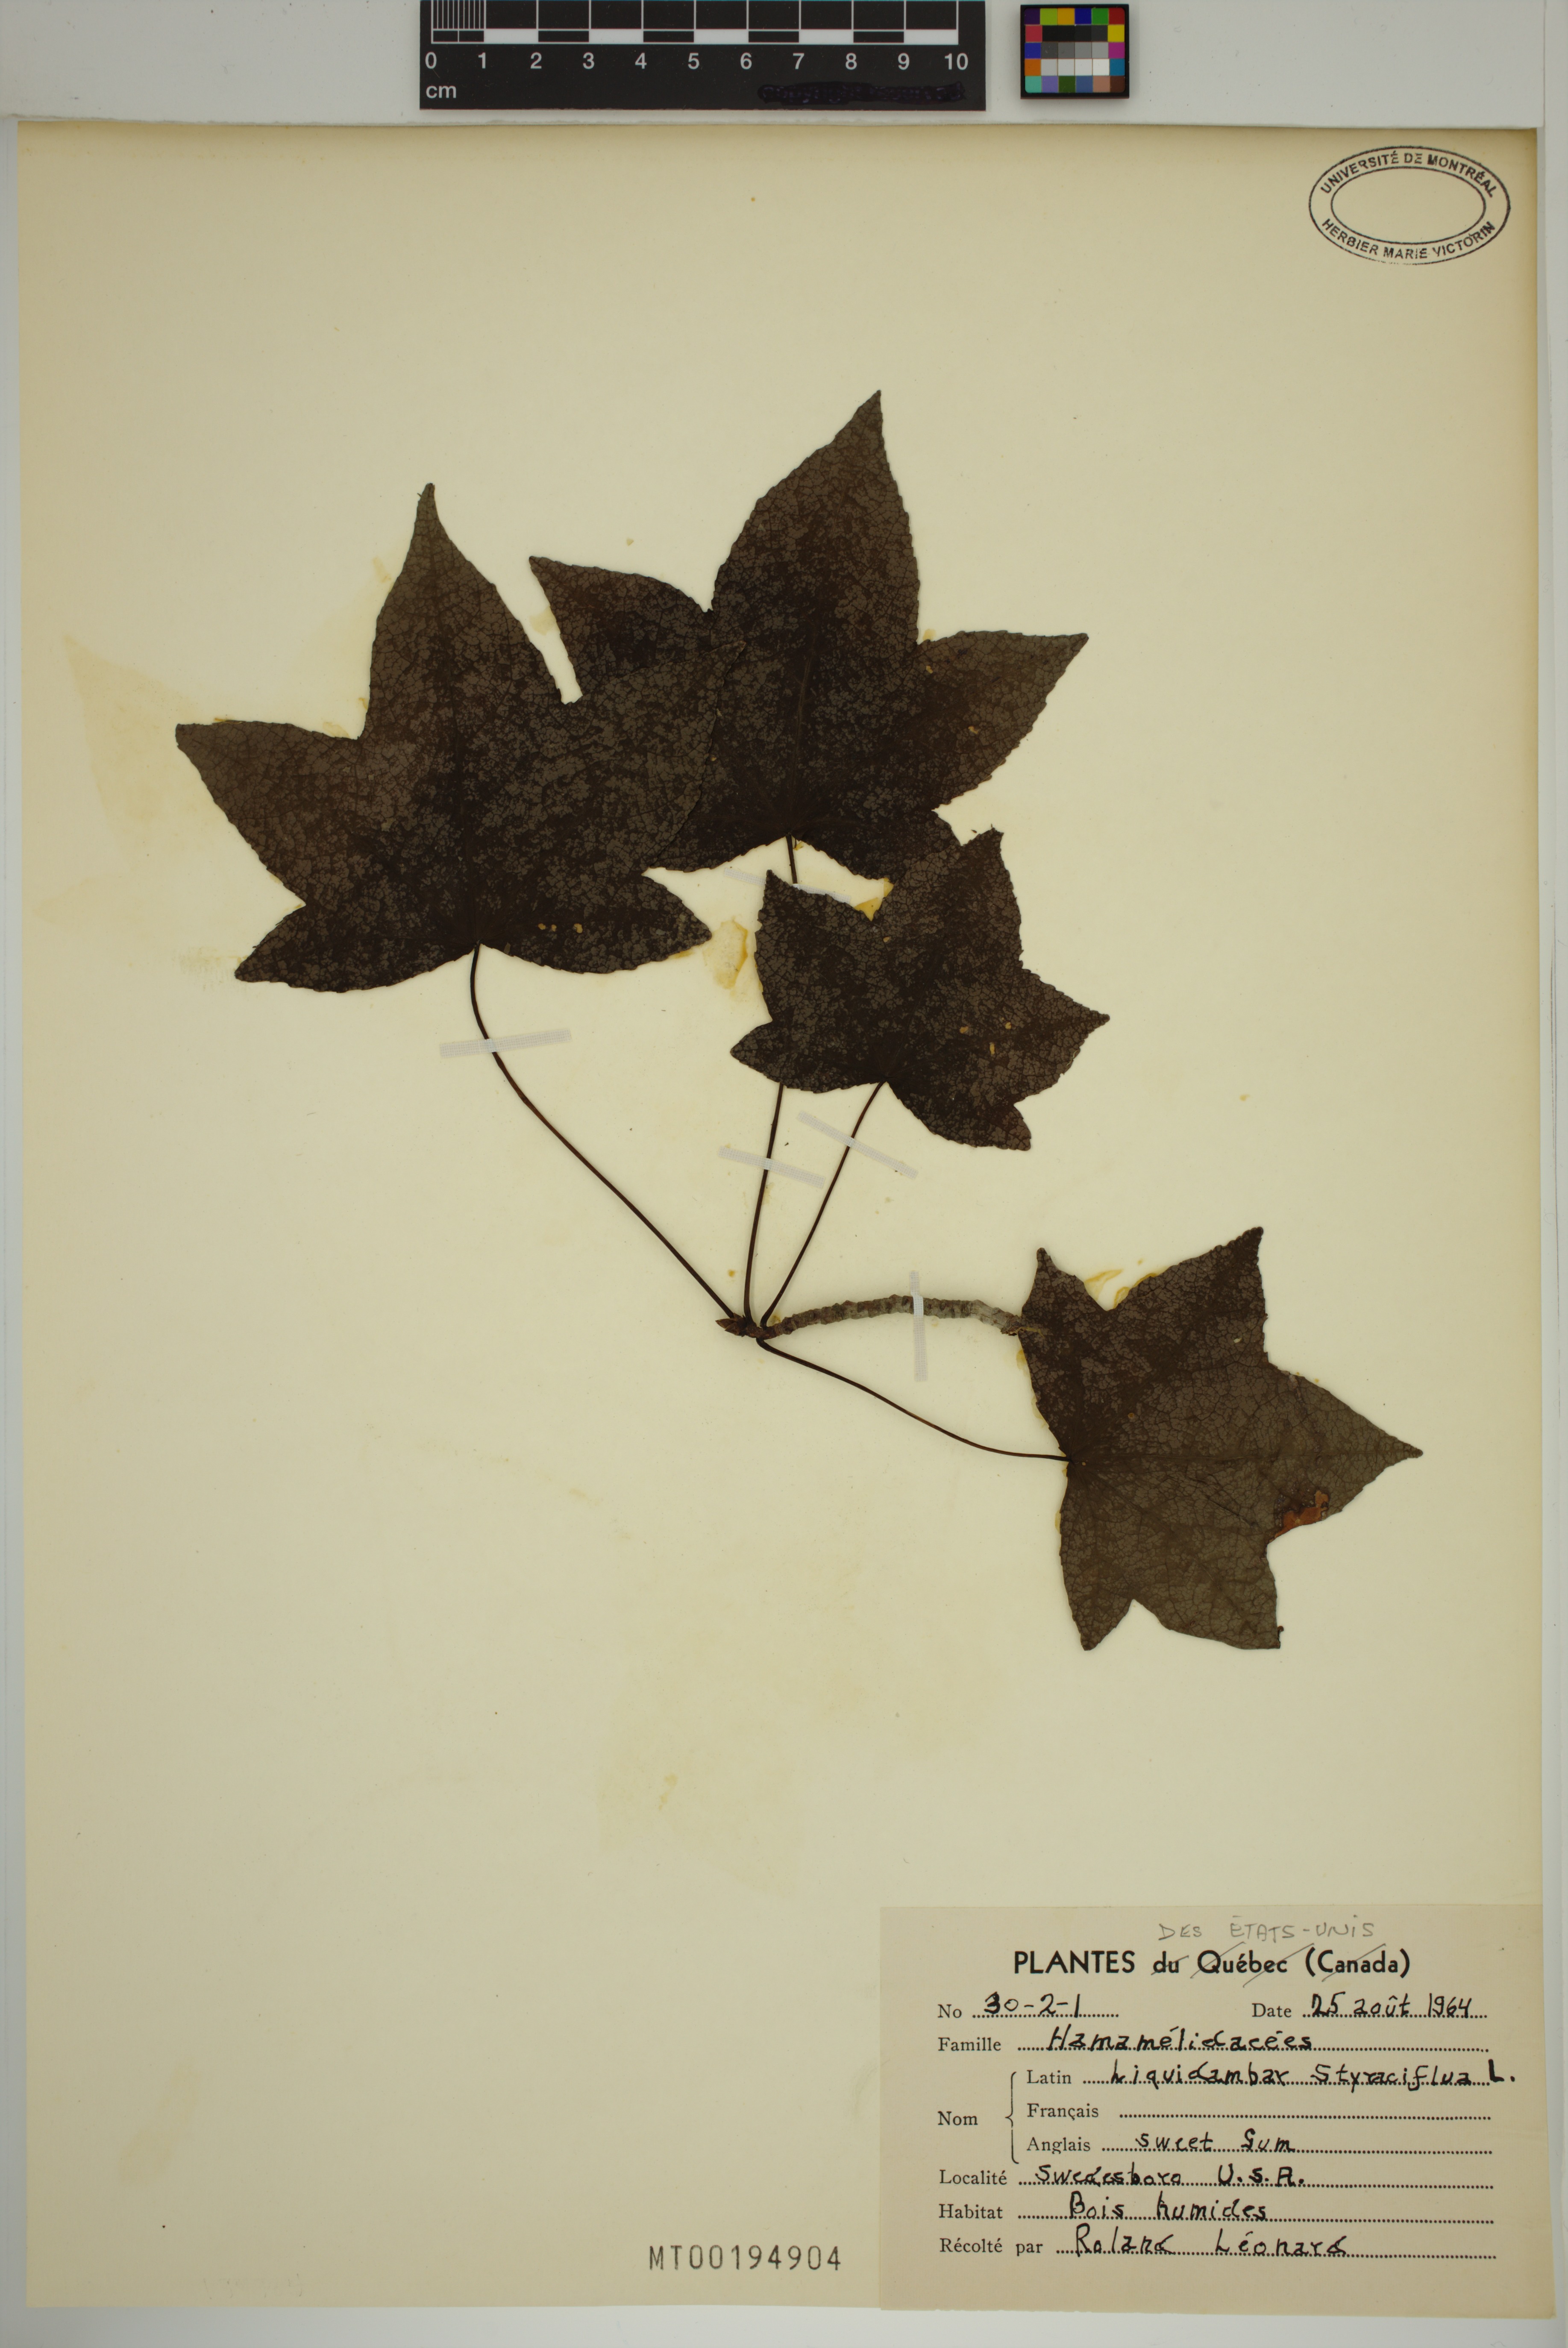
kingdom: Plantae
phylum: Tracheophyta
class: Magnoliopsida
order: Saxifragales
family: Altingiaceae
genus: Liquidambar
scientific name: Liquidambar styraciflua
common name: Sweet gum
